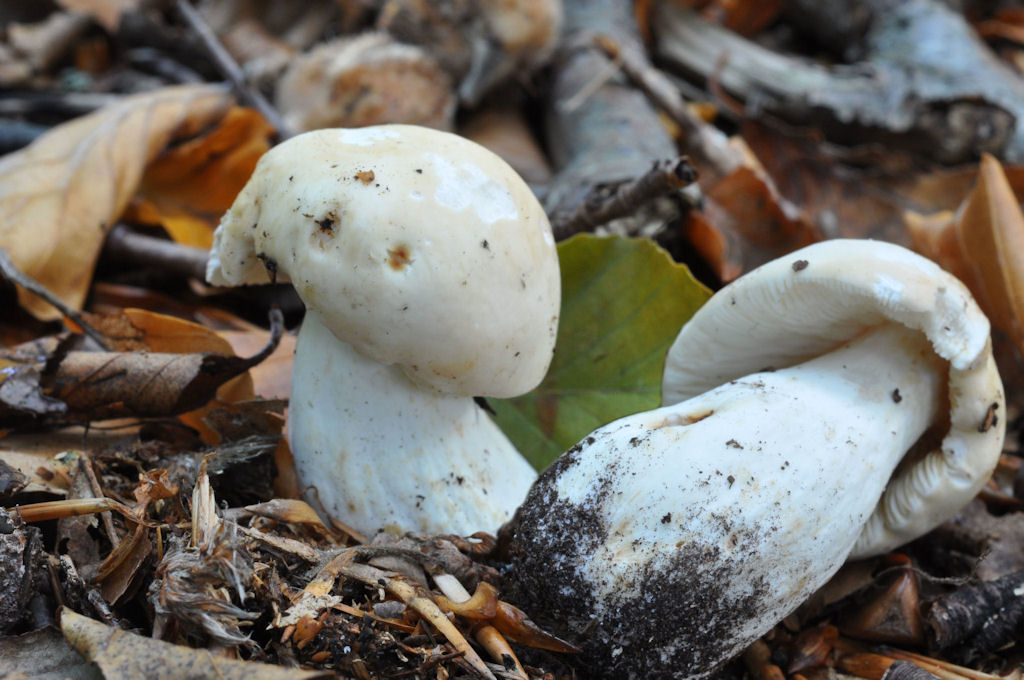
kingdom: Fungi
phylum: Basidiomycota
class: Agaricomycetes
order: Russulales
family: Russulaceae
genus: Russula
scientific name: Russula rosea
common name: fastkødet skørhat
